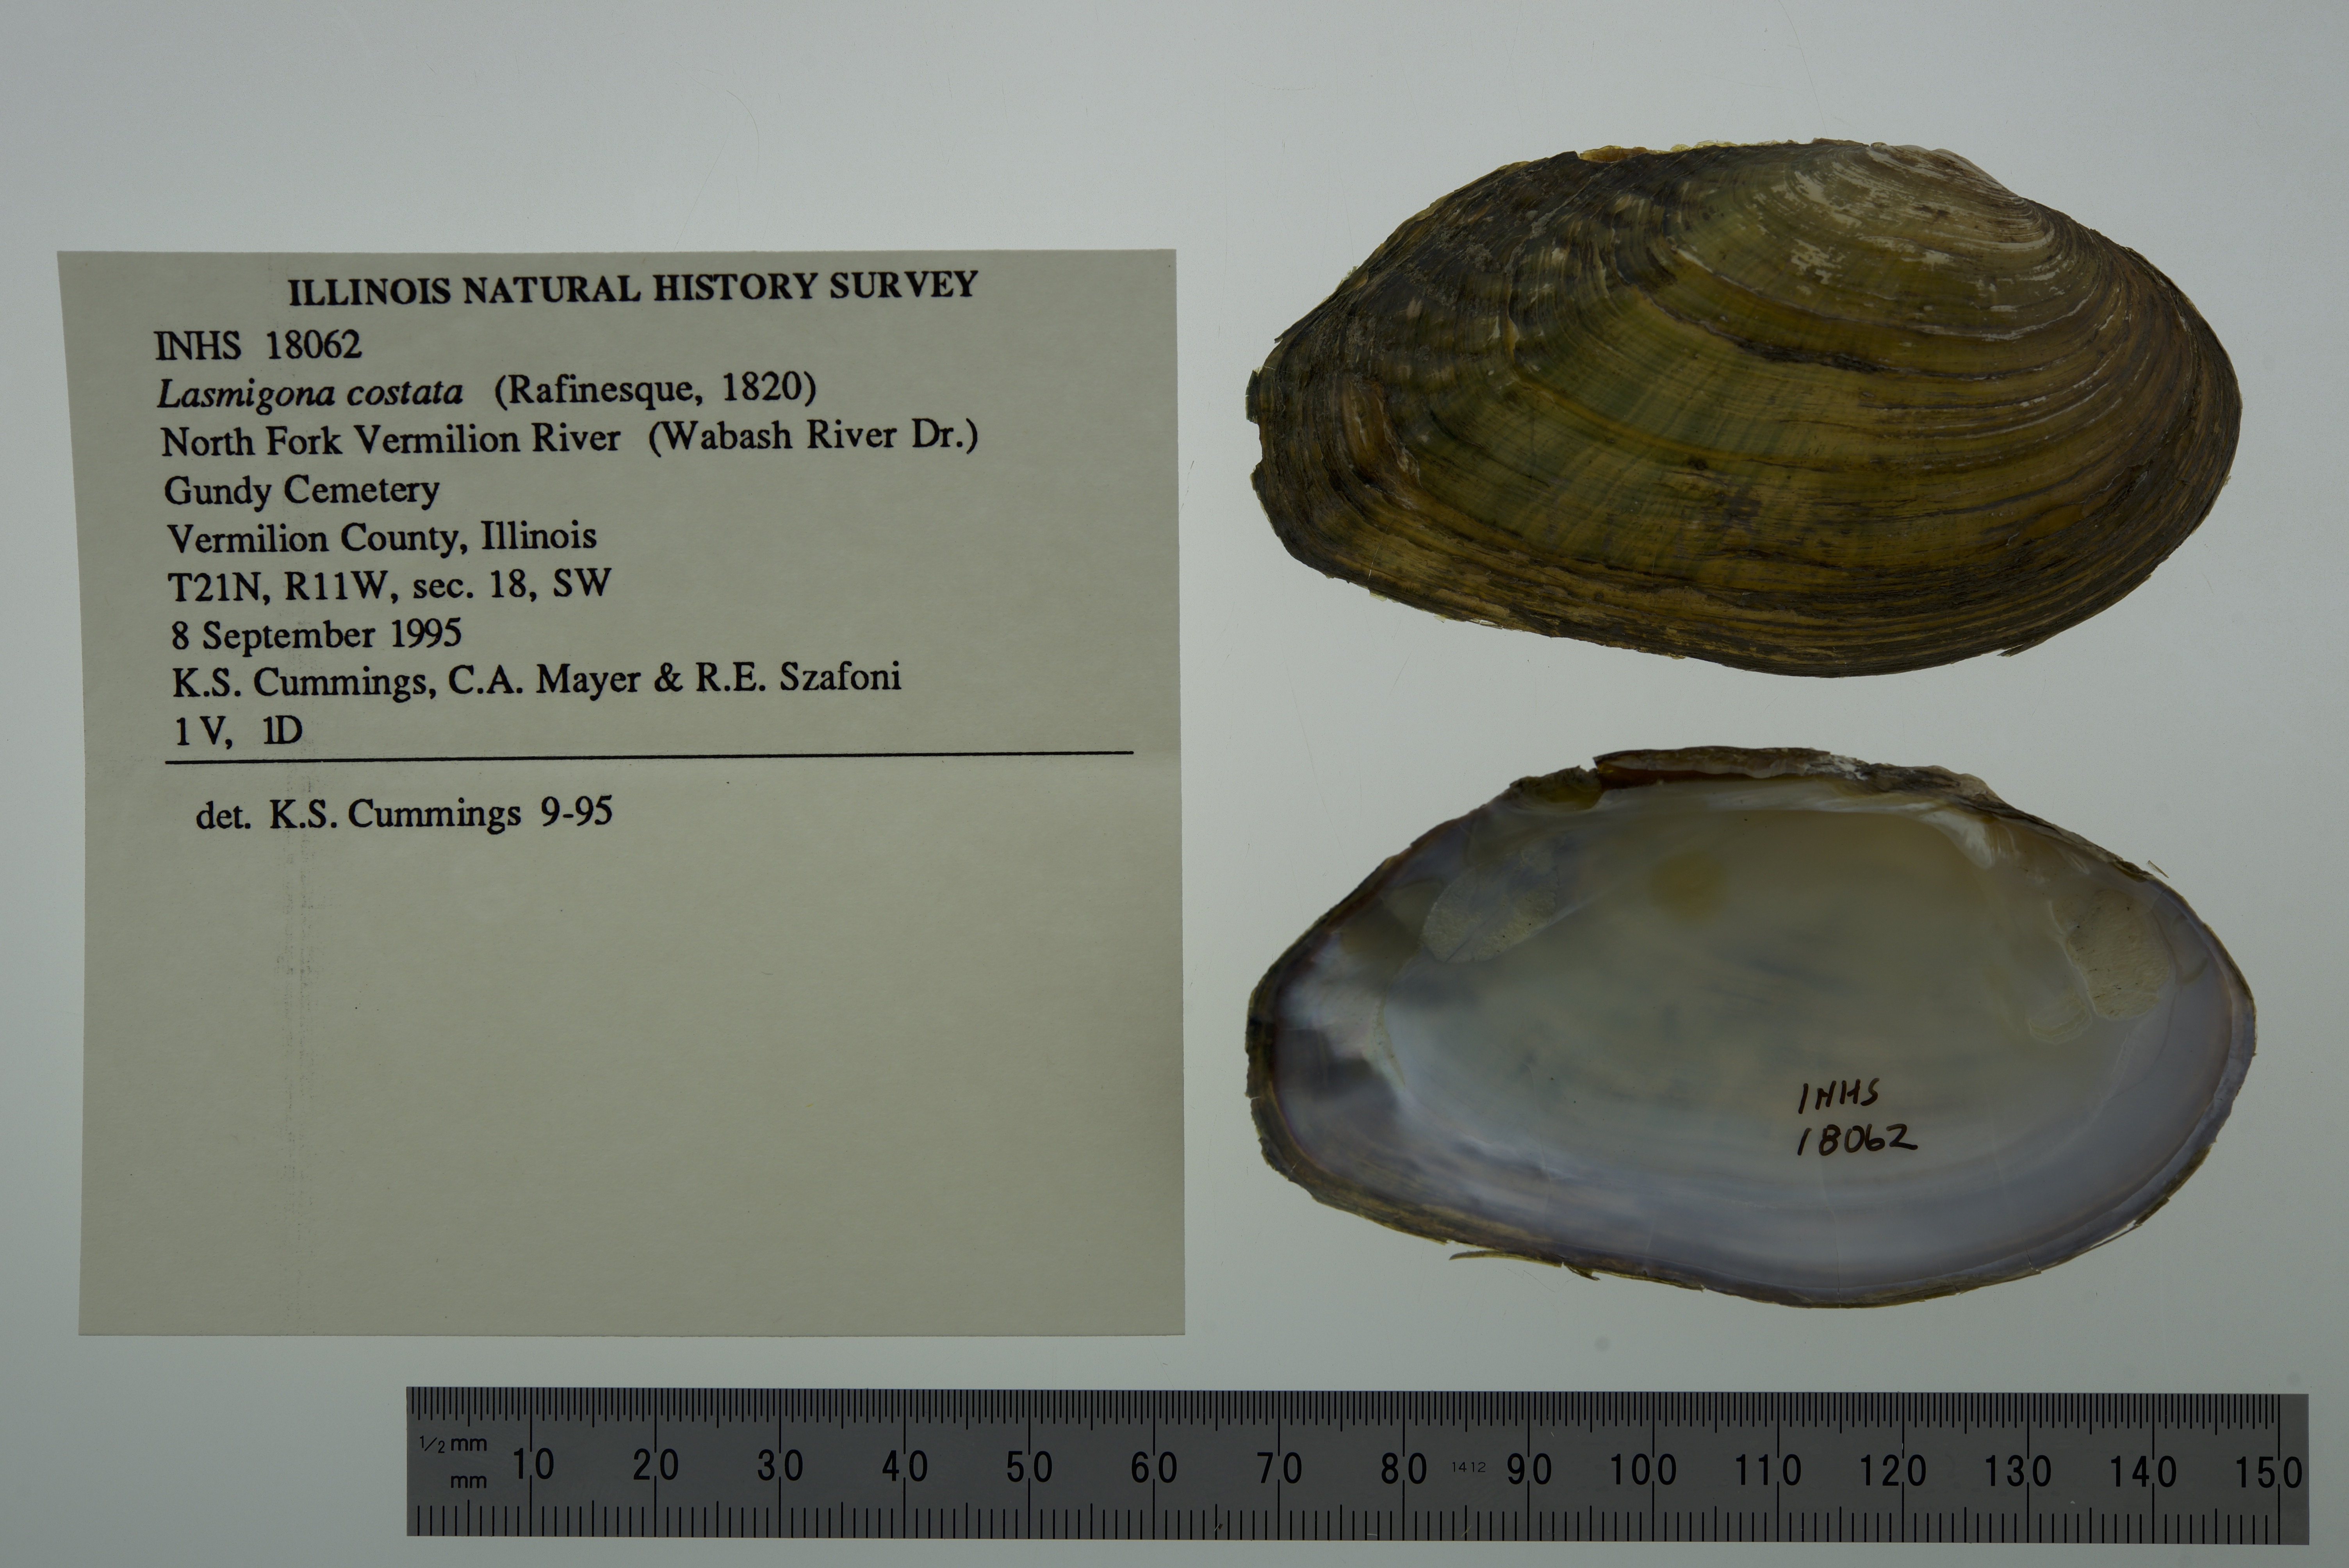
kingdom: Animalia
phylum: Mollusca
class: Bivalvia
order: Unionida
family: Unionidae
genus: Lasmigona
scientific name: Lasmigona costata
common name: Flutedshell
